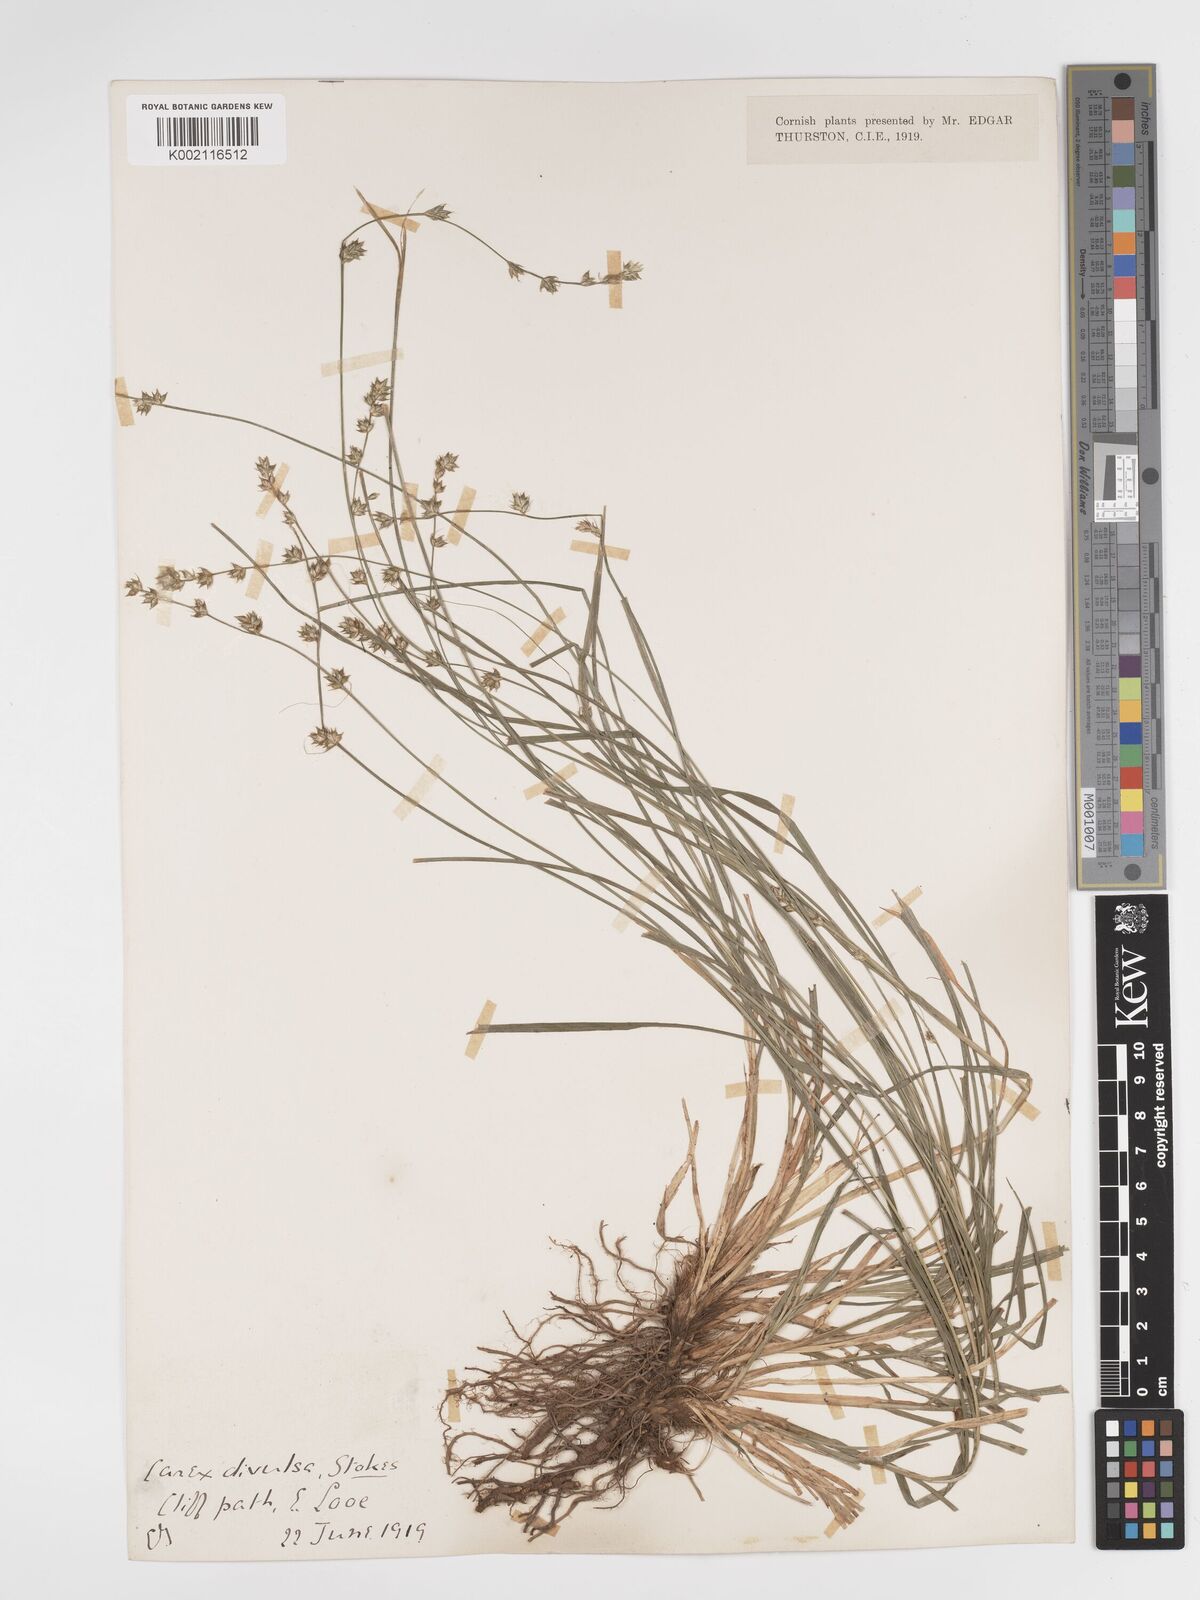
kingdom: Plantae
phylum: Tracheophyta
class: Liliopsida
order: Poales
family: Cyperaceae
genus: Carex
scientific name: Carex divulsa
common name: Grassland sedge
